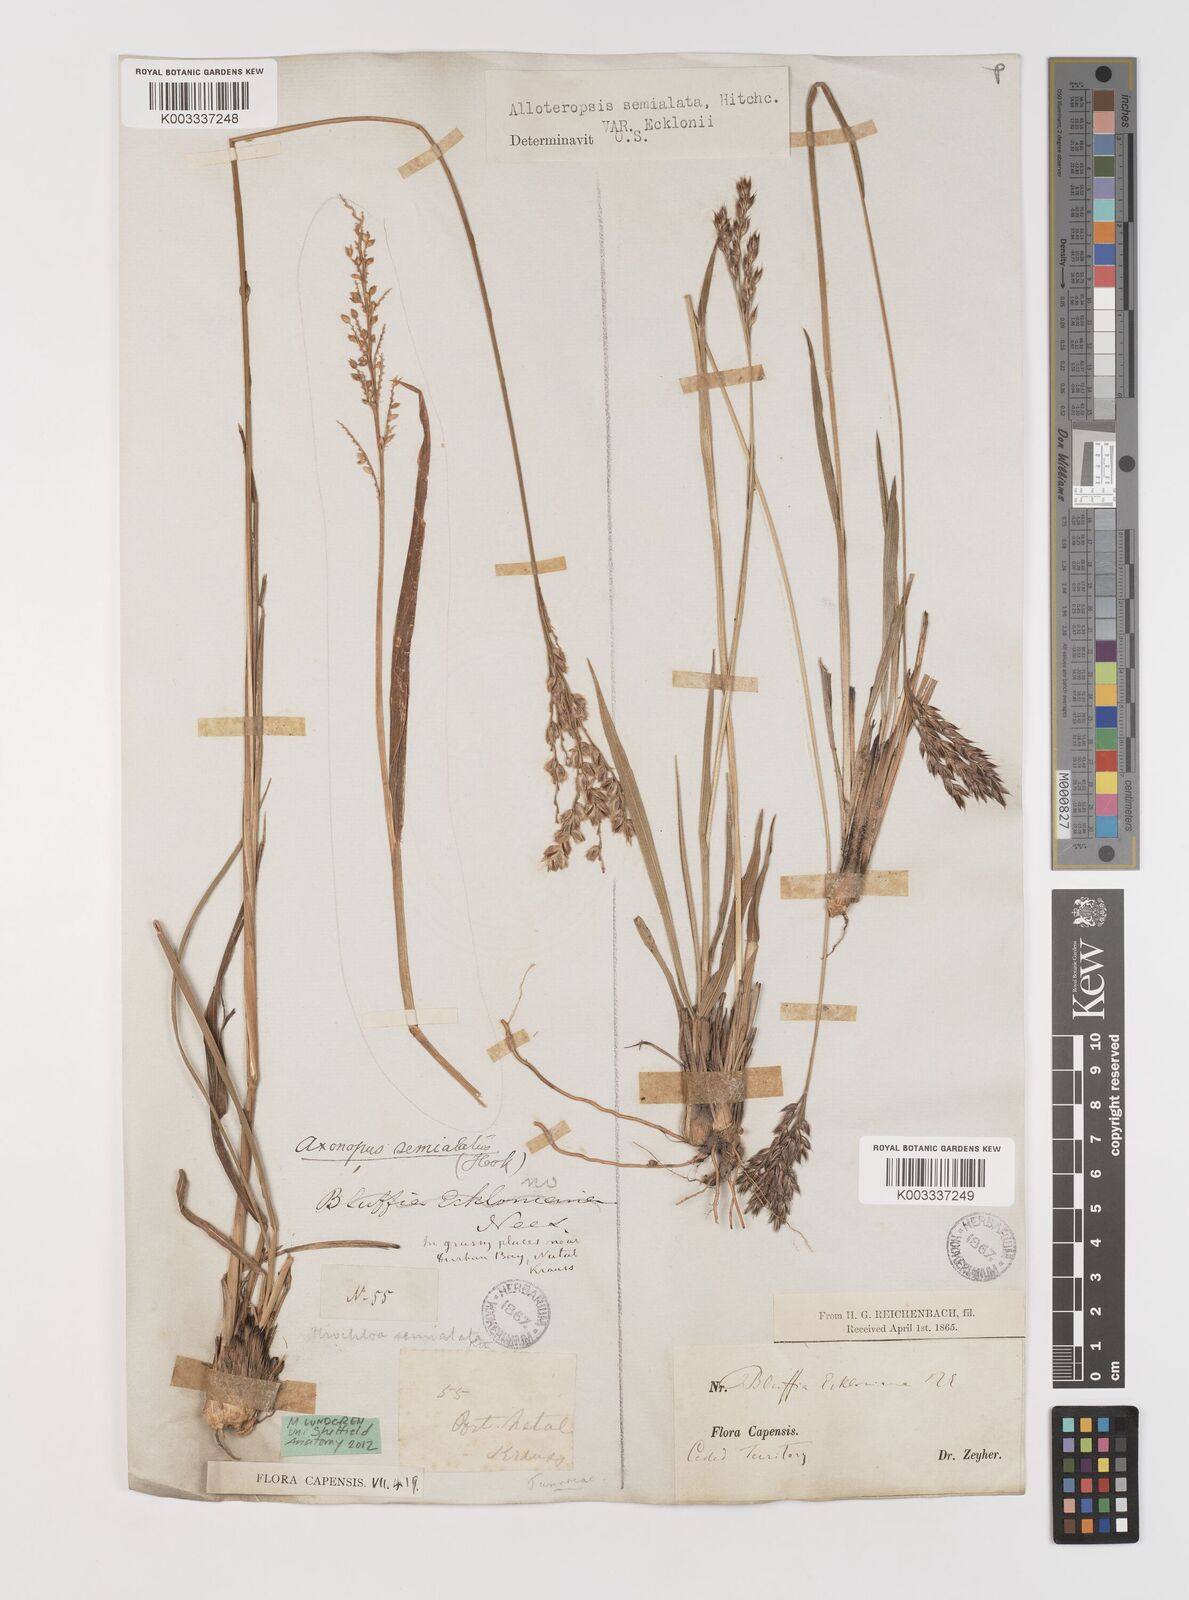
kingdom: Plantae
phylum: Tracheophyta
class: Liliopsida
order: Poales
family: Poaceae
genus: Alloteropsis
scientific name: Alloteropsis semialata
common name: Cockatoo grass
